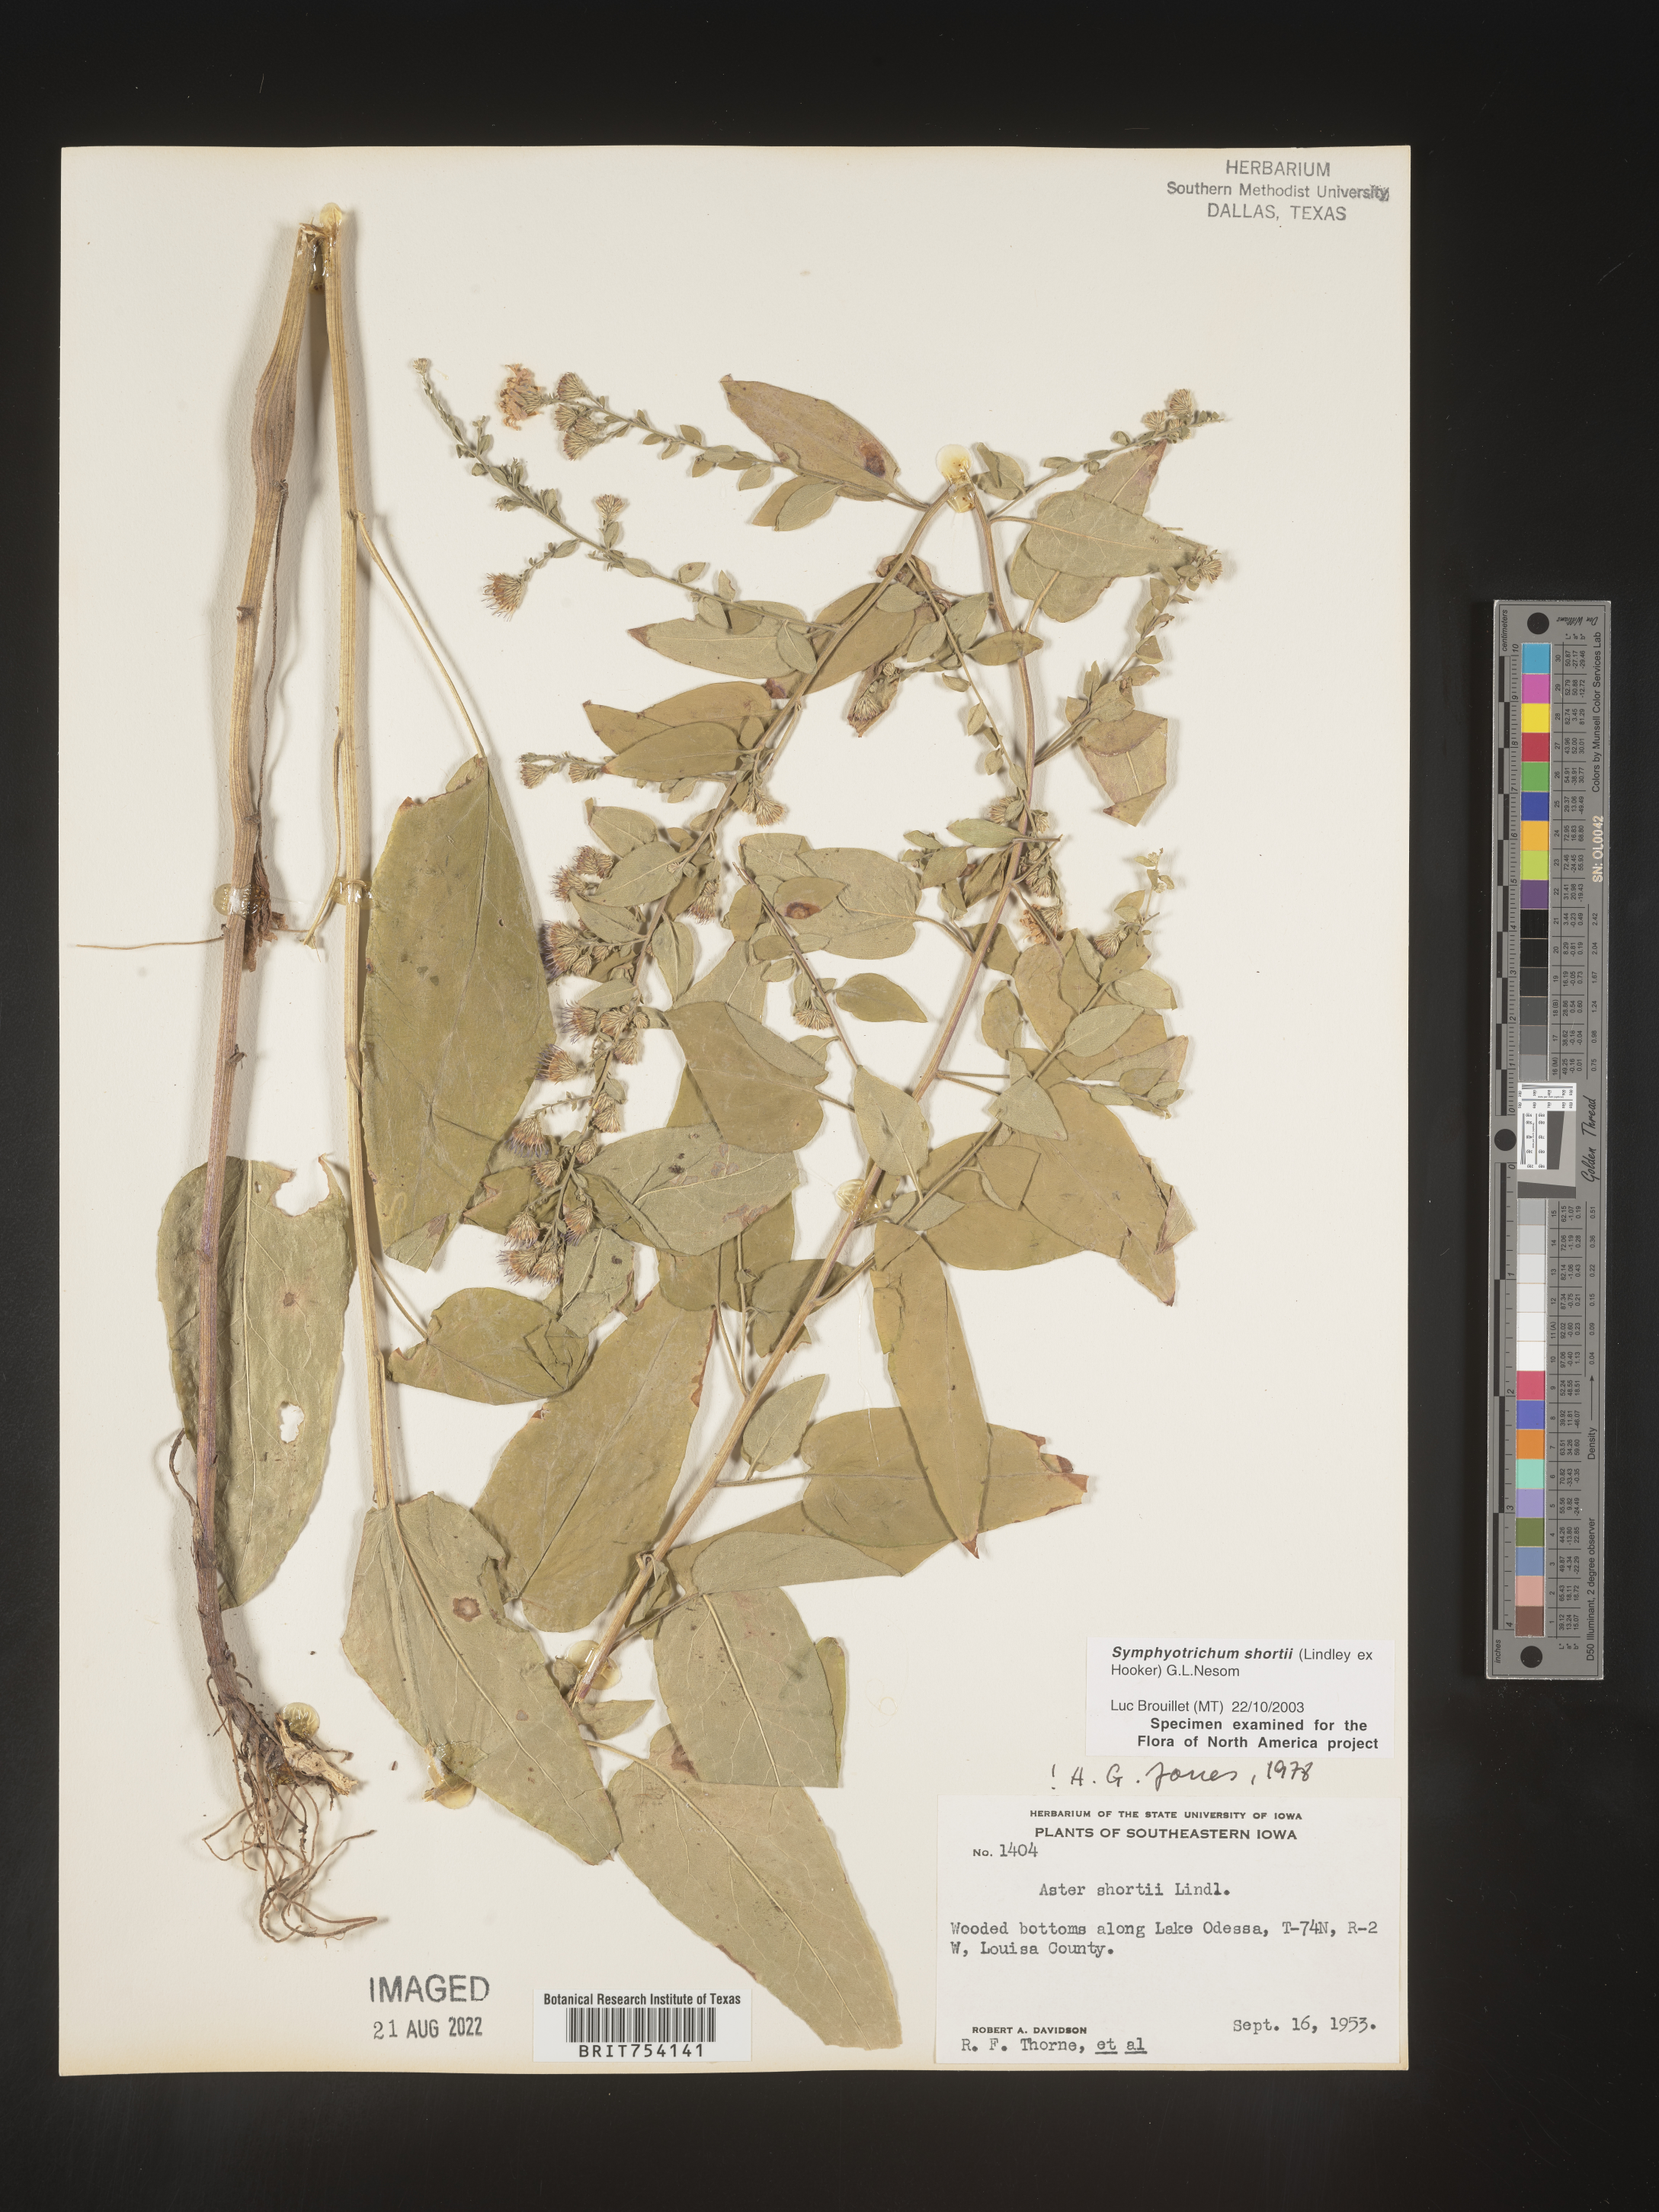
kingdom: Plantae
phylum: Tracheophyta
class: Magnoliopsida
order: Asterales
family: Asteraceae
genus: Symphyotrichum
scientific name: Symphyotrichum shortii
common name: Short's aster
